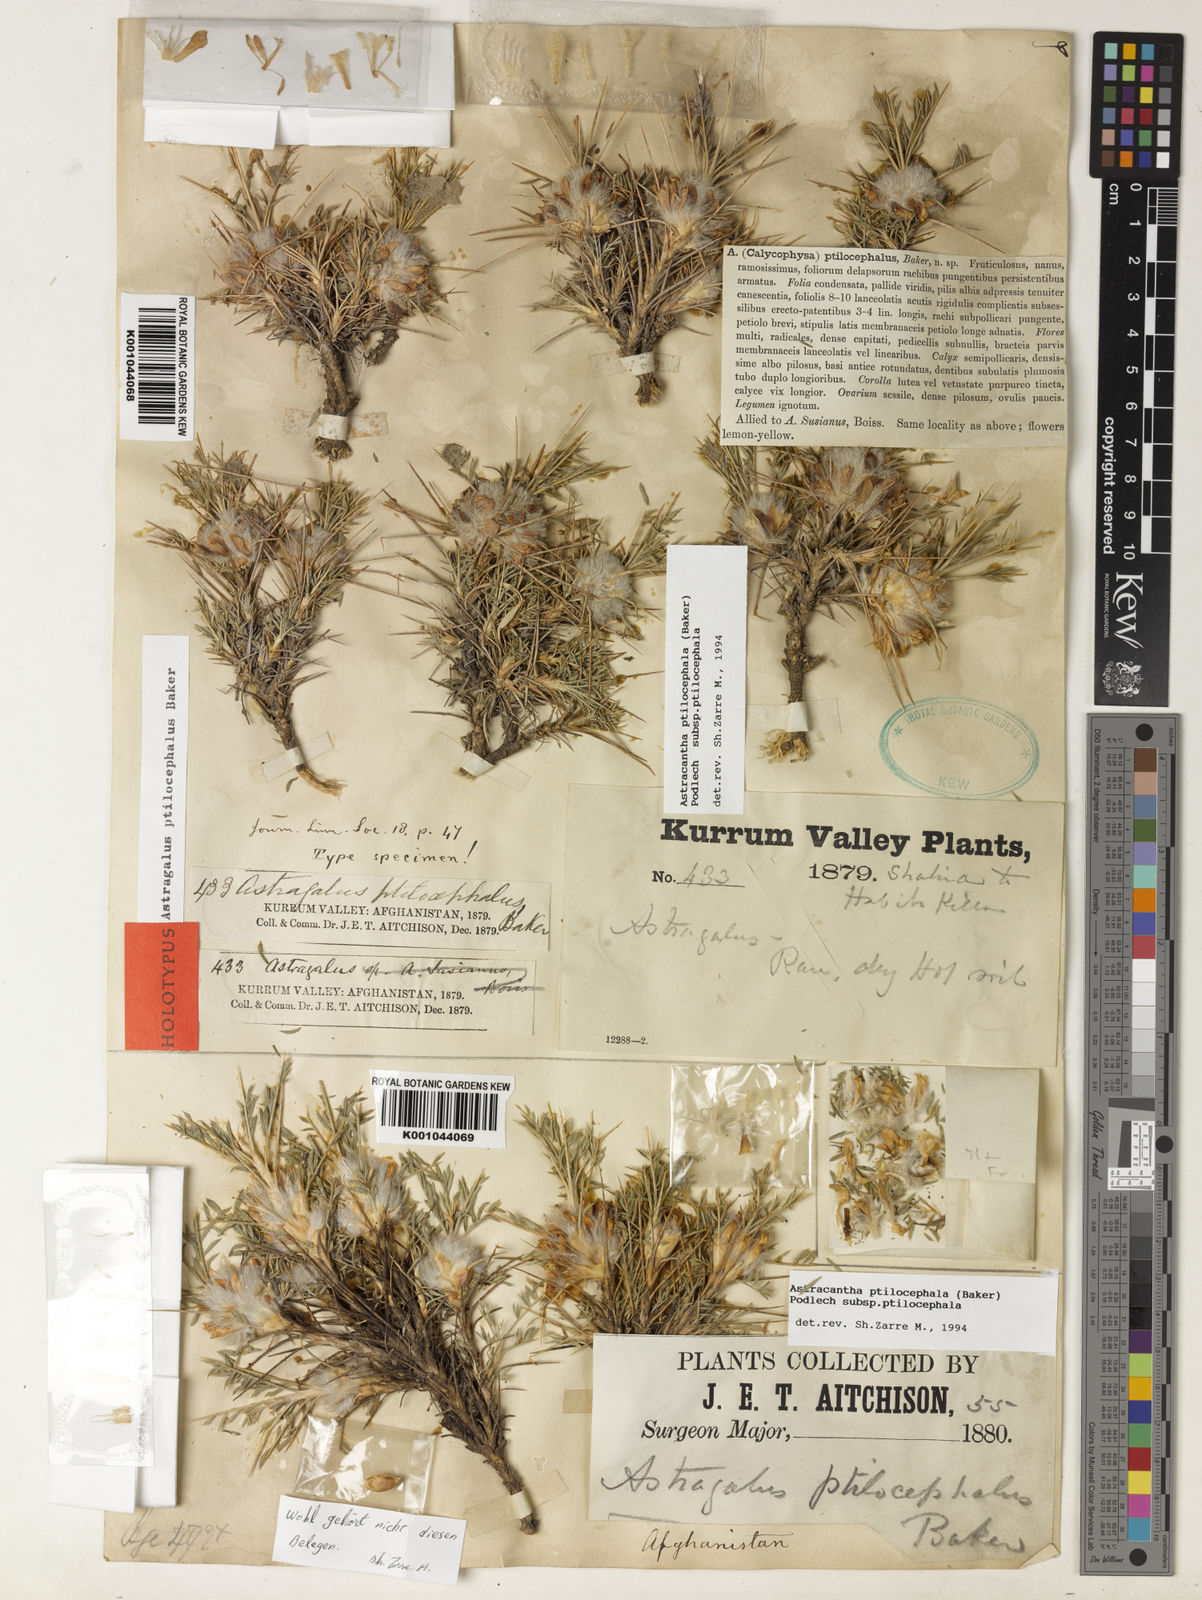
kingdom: Plantae
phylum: Tracheophyta
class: Magnoliopsida
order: Fabales
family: Fabaceae
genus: Astragalus
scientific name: Astragalus ptilocephalus
